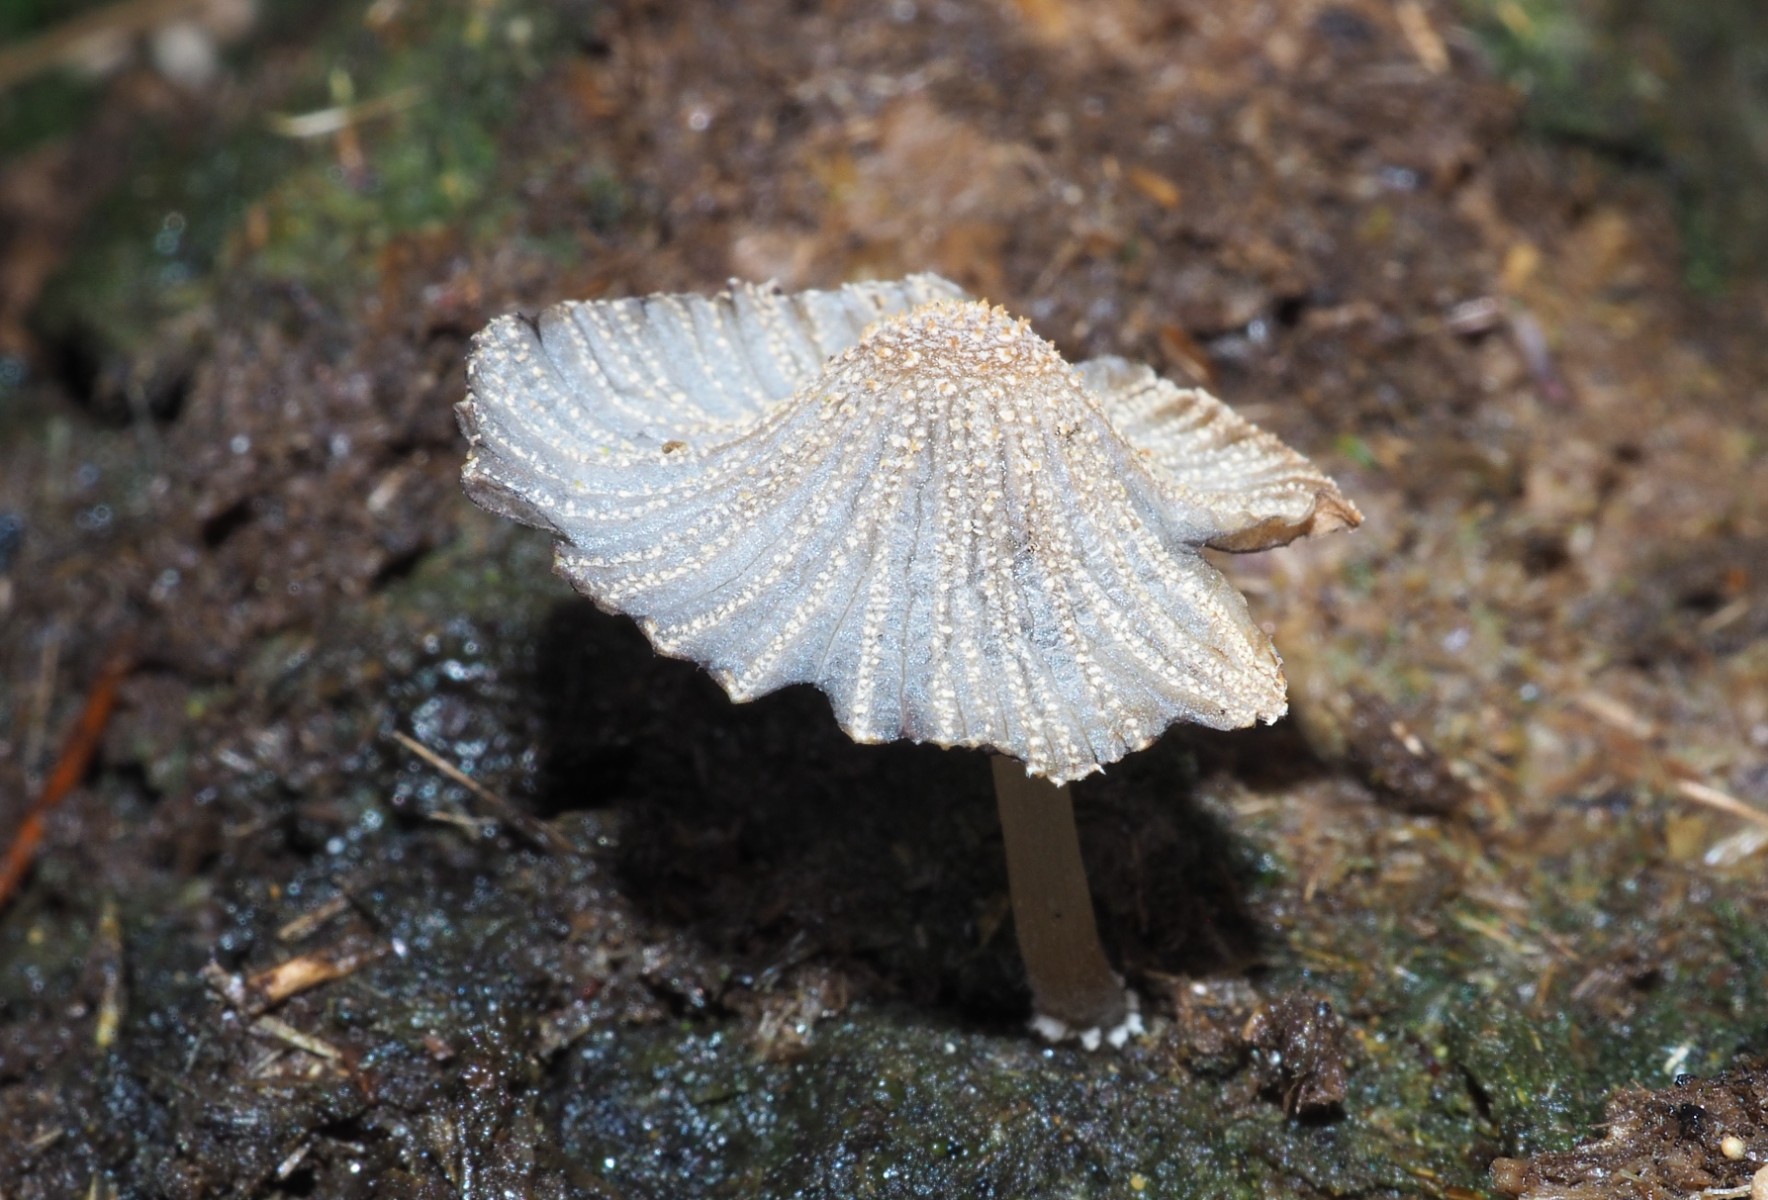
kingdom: Fungi
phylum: Basidiomycota
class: Agaricomycetes
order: Agaricales
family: Psathyrellaceae
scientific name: Psathyrellaceae
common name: mørkhatfamilien
